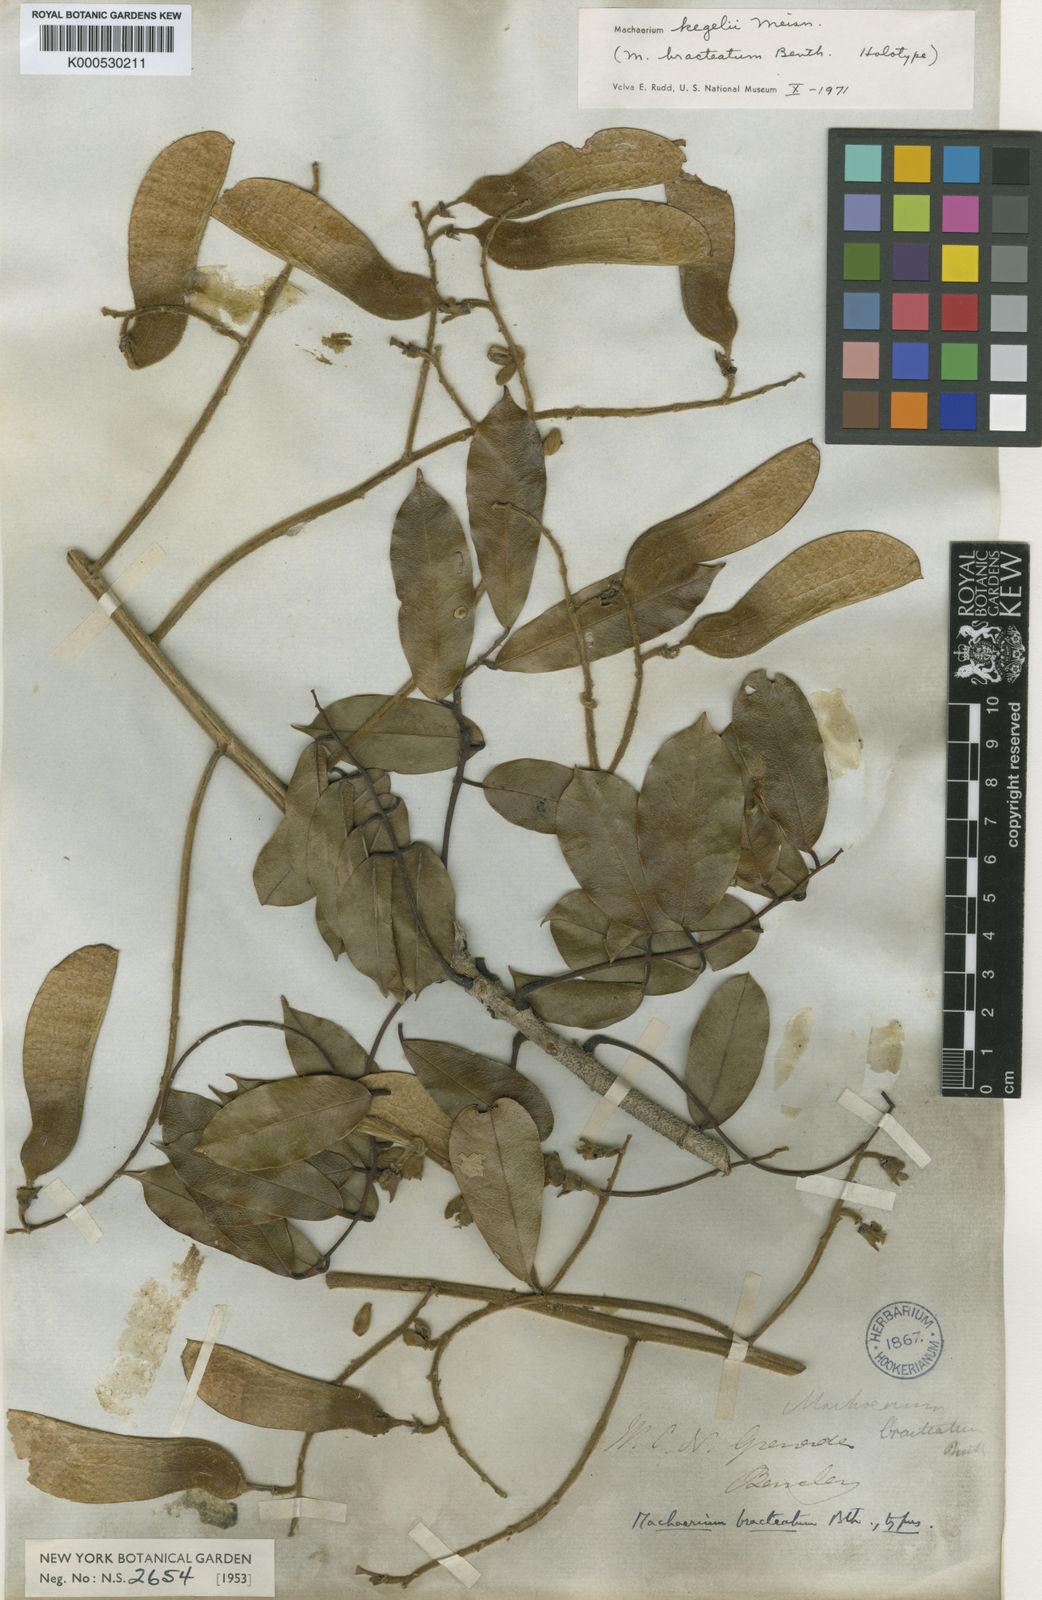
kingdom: Plantae
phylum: Tracheophyta
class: Magnoliopsida
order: Fabales
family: Fabaceae
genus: Machaerium
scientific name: Machaerium kegelii
